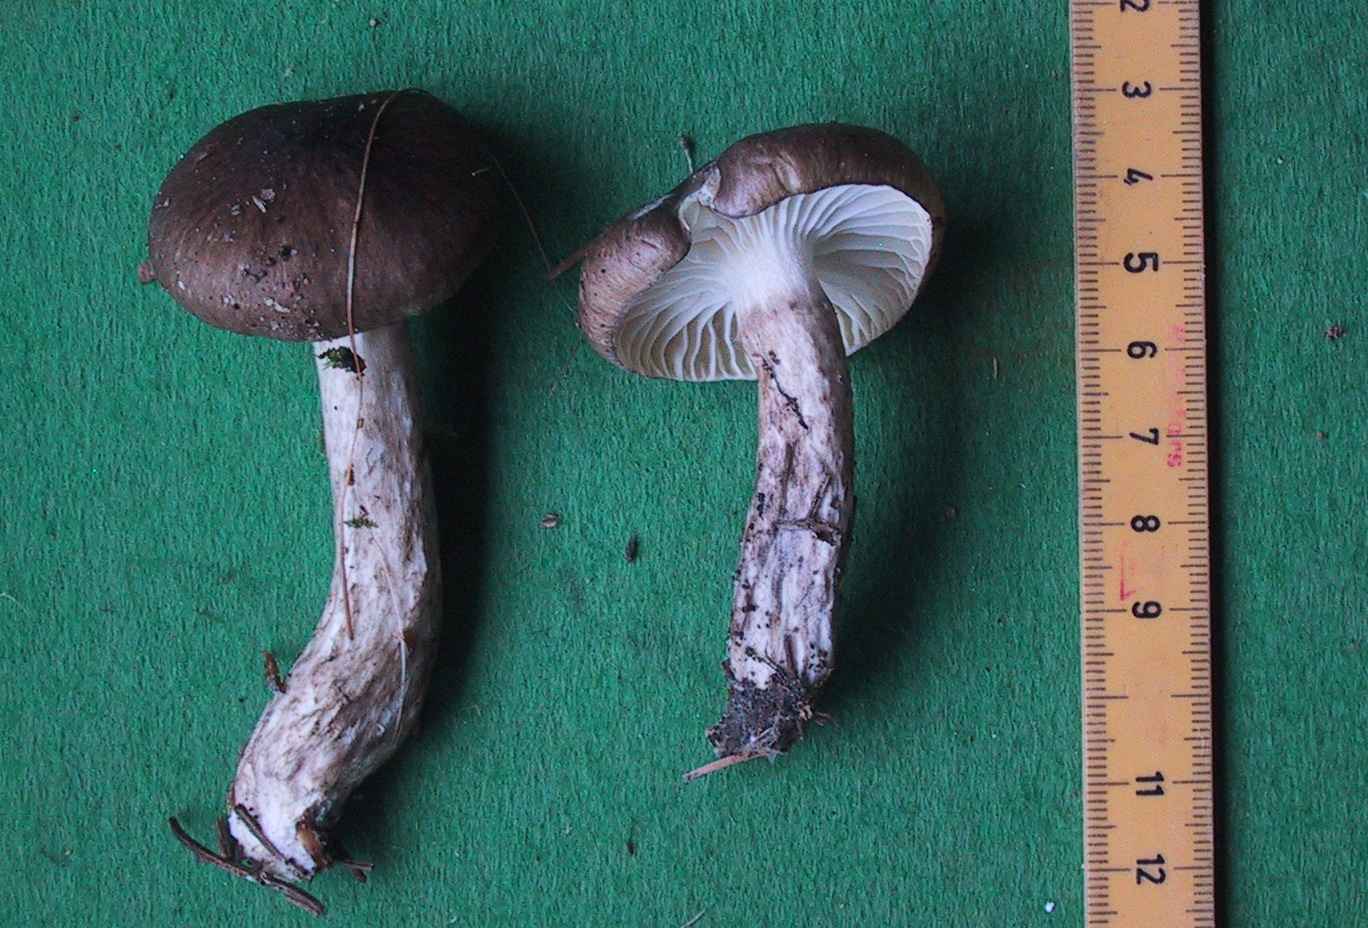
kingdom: Fungi
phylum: Basidiomycota
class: Agaricomycetes
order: Agaricales
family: Hygrophoraceae
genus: Hygrophorus
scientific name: Hygrophorus olivaceoalbus
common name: hvidbrun sneglehat
